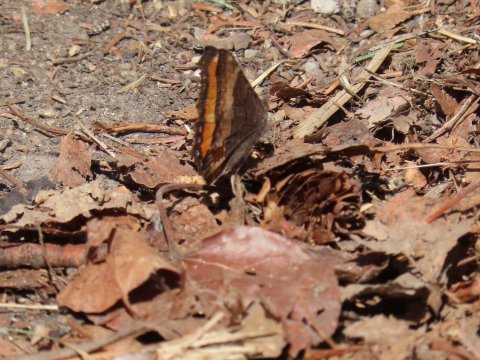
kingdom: Animalia
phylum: Arthropoda
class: Insecta
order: Lepidoptera
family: Nymphalidae
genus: Aglais
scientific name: Aglais milberti
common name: Milbert's Tortoiseshell
